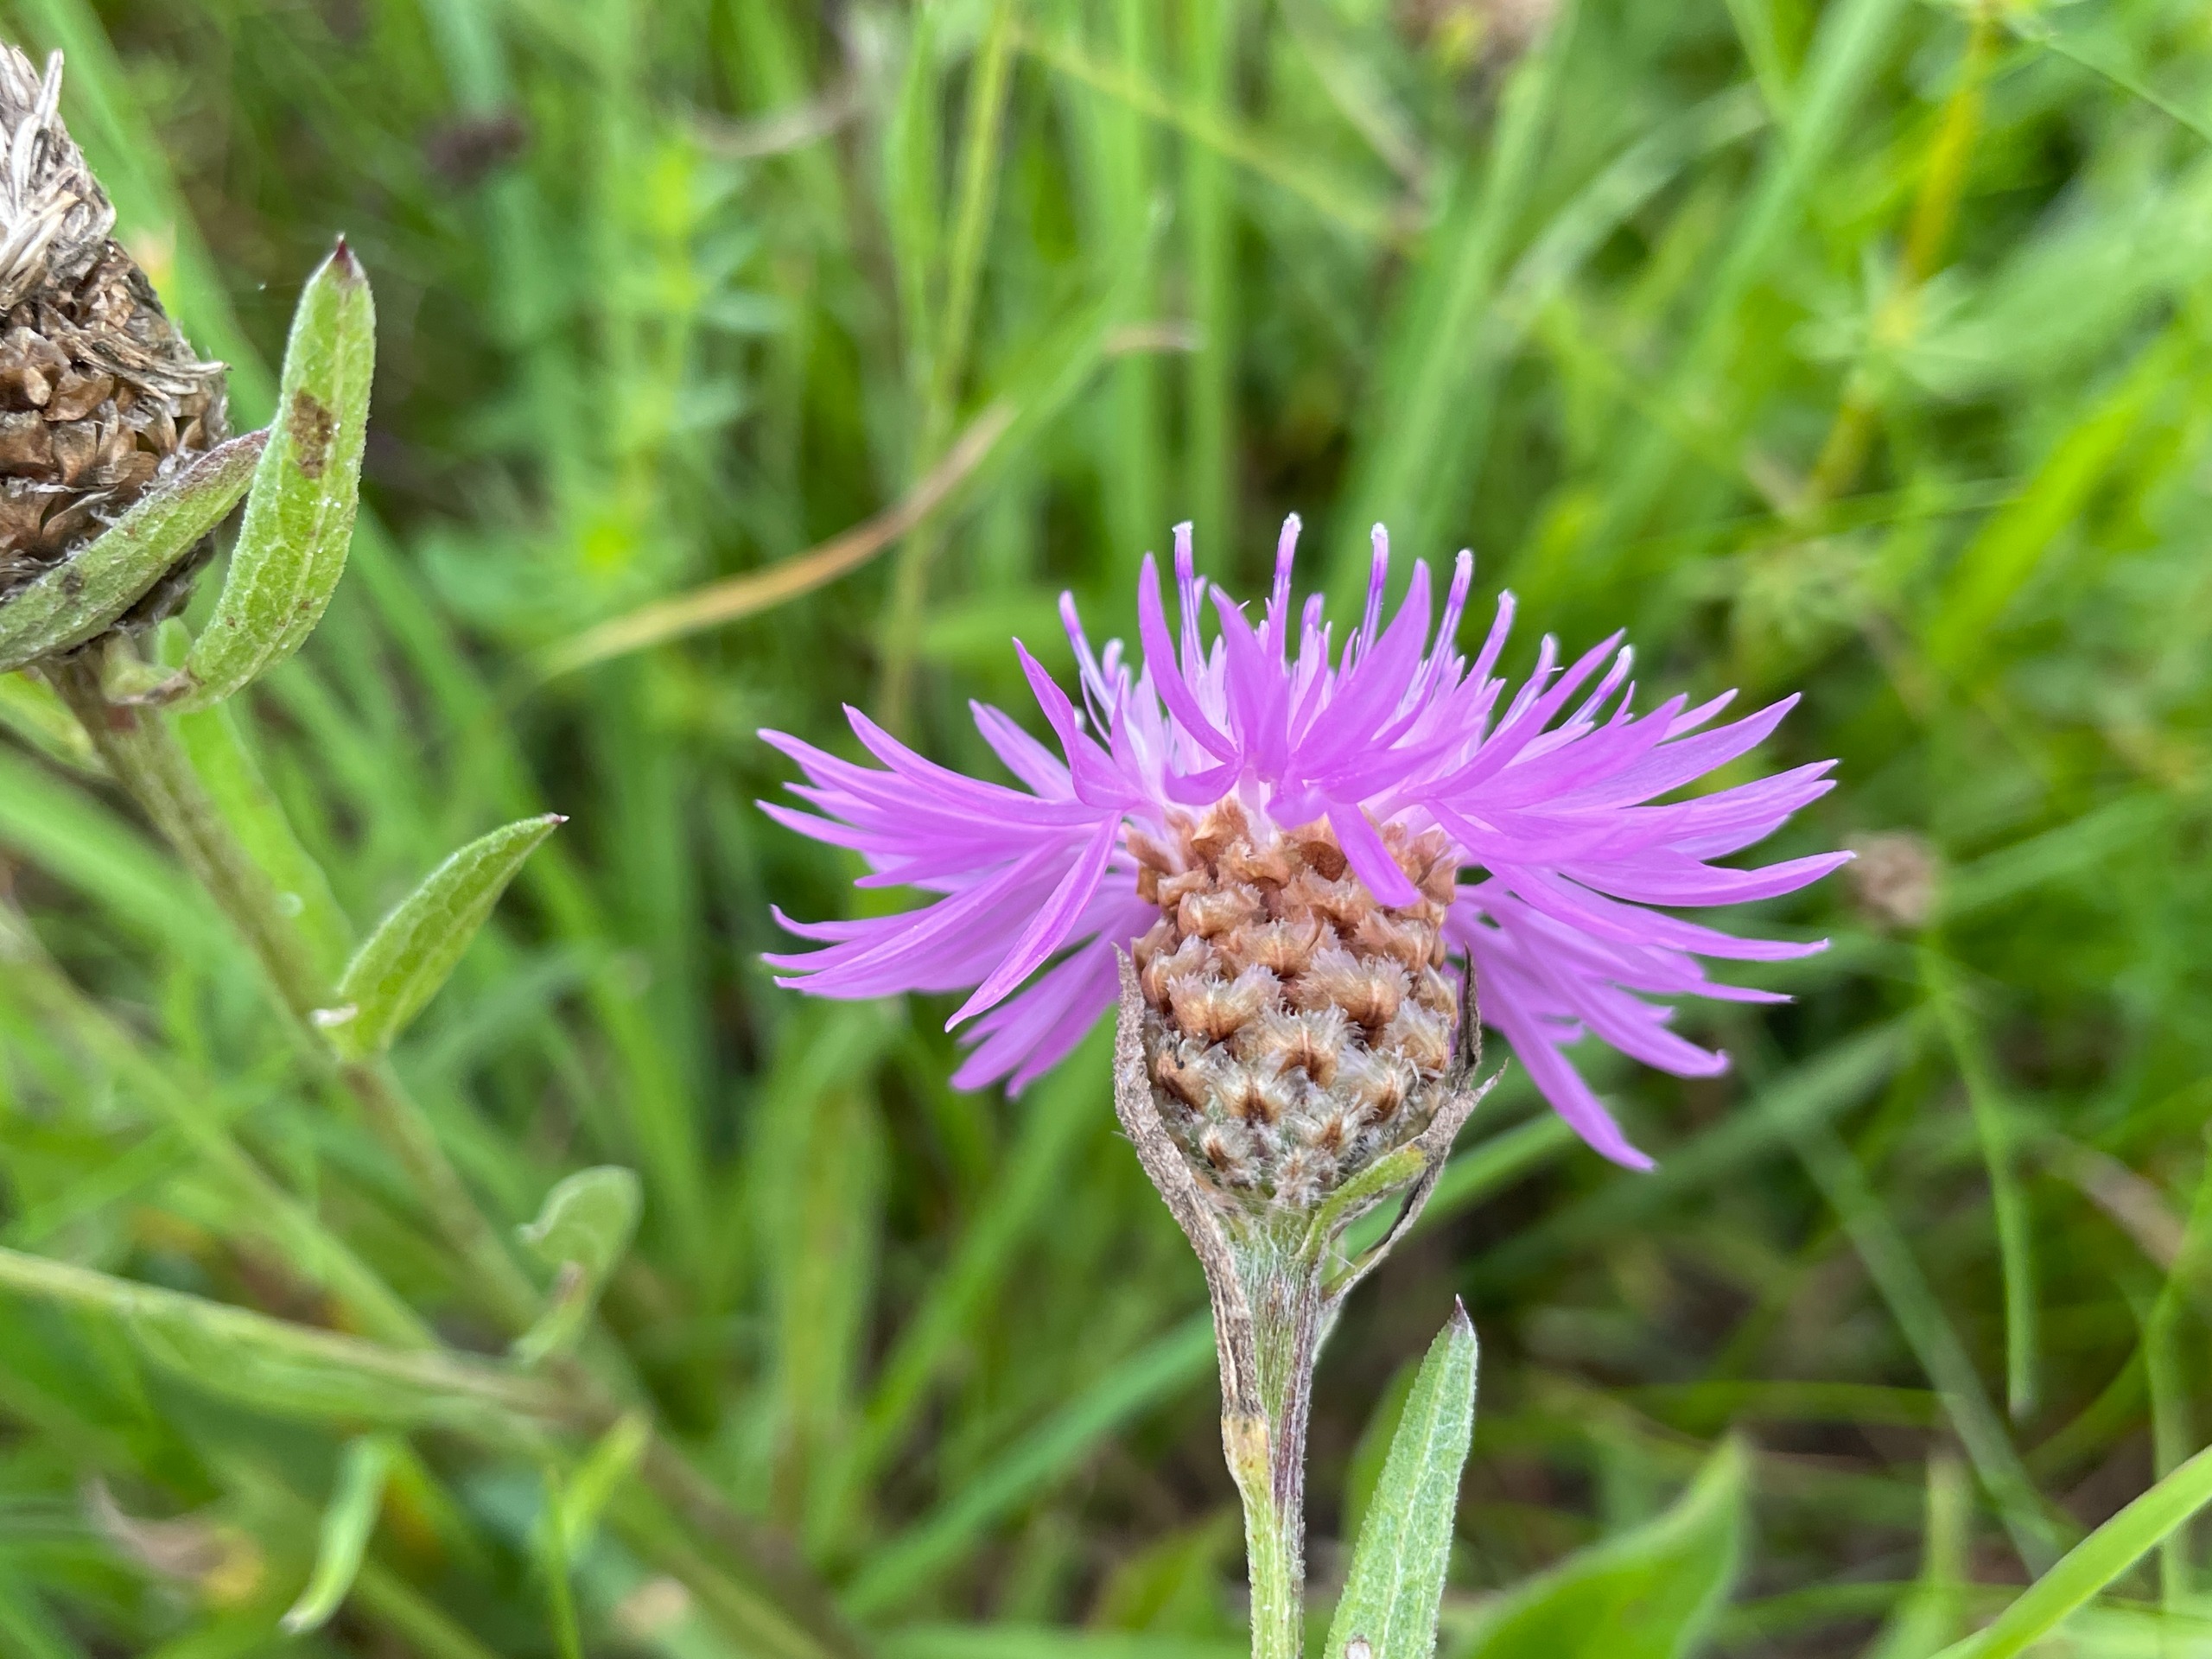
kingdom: Plantae
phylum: Tracheophyta
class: Magnoliopsida
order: Asterales
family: Asteraceae
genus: Centaurea
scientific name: Centaurea jacea
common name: Almindelig knopurt
